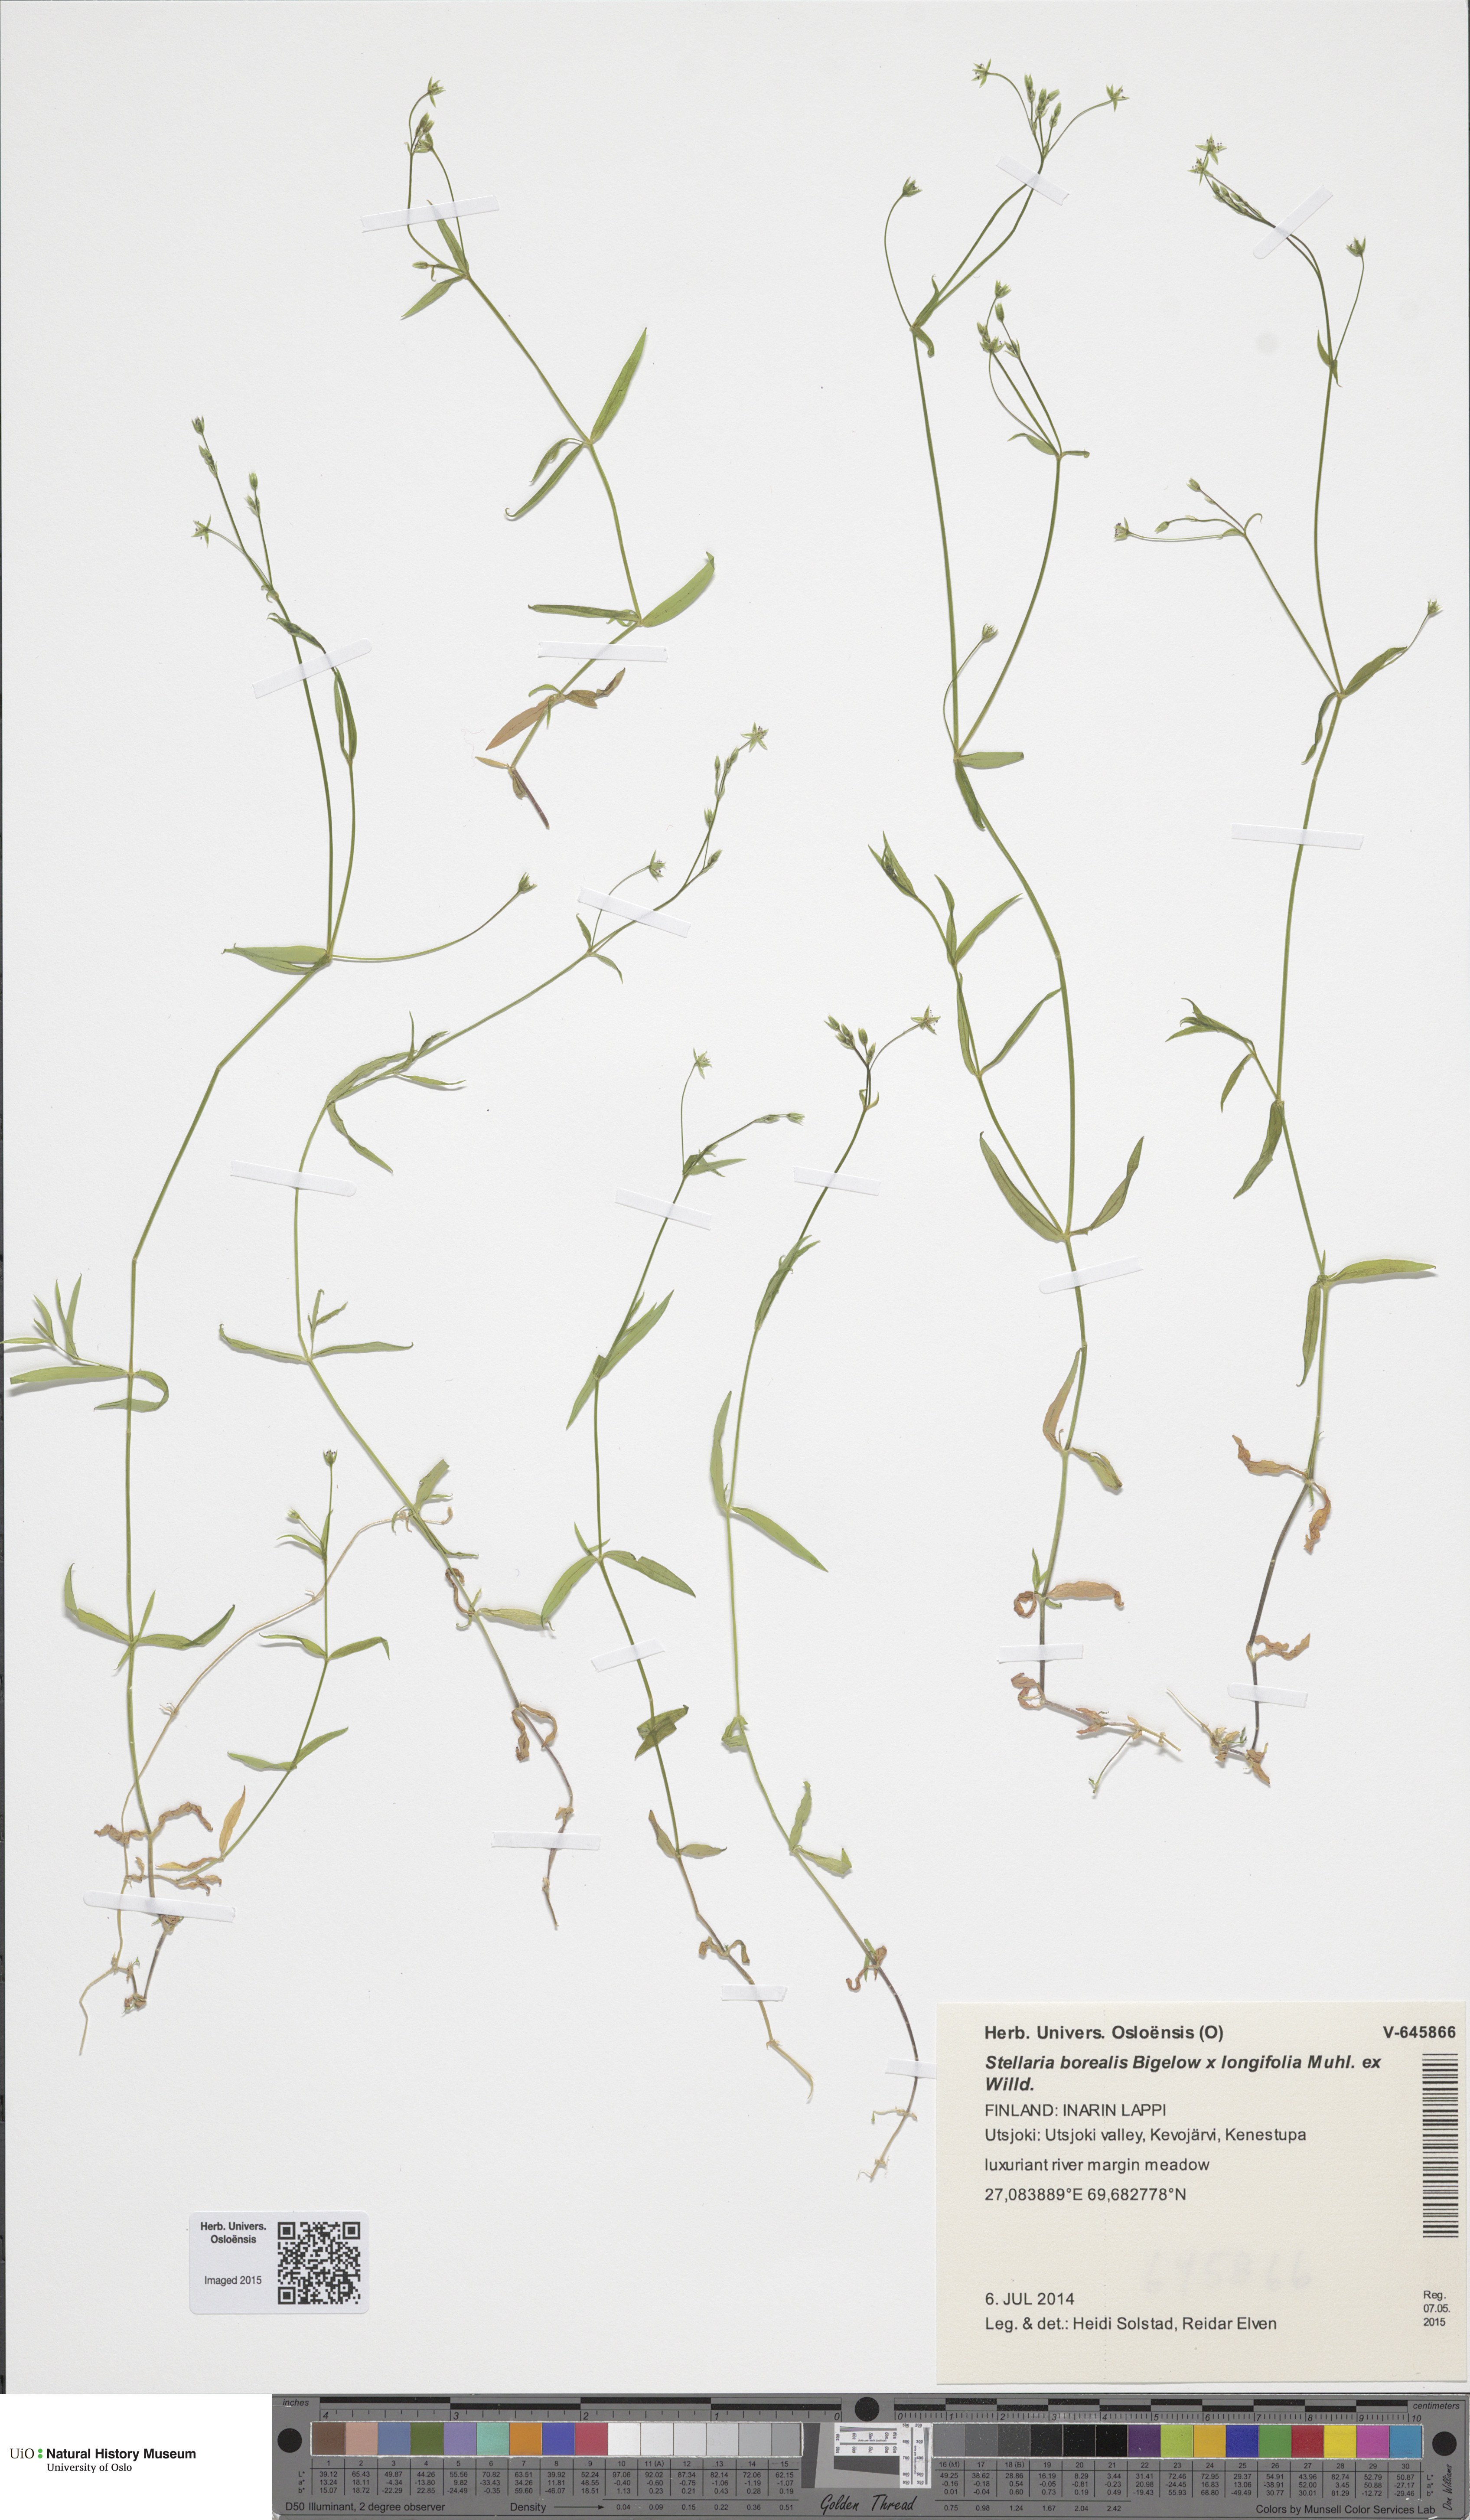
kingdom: Plantae
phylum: Tracheophyta
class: Magnoliopsida
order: Caryophyllales
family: Caryophyllaceae
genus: Stellaria
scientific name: Stellaria
